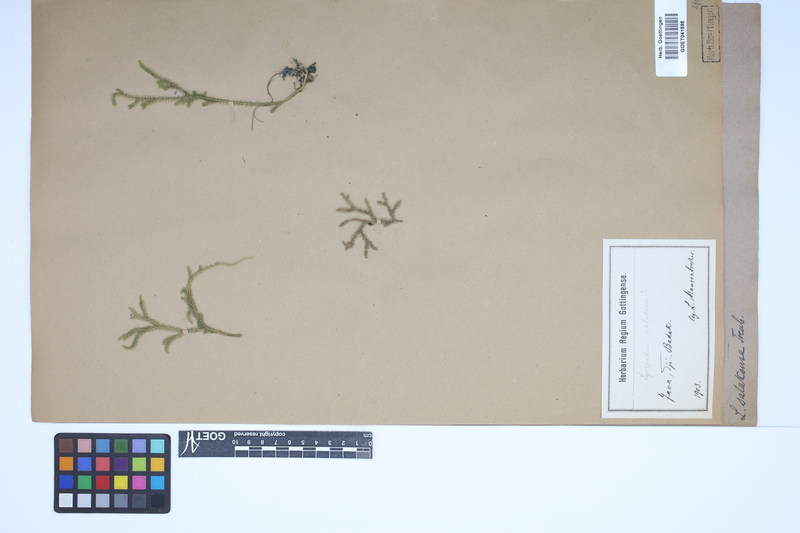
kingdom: Plantae
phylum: Tracheophyta
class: Lycopodiopsida
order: Lycopodiales
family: Lycopodiaceae
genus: Palhinhaea
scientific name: Palhinhaea cernua
